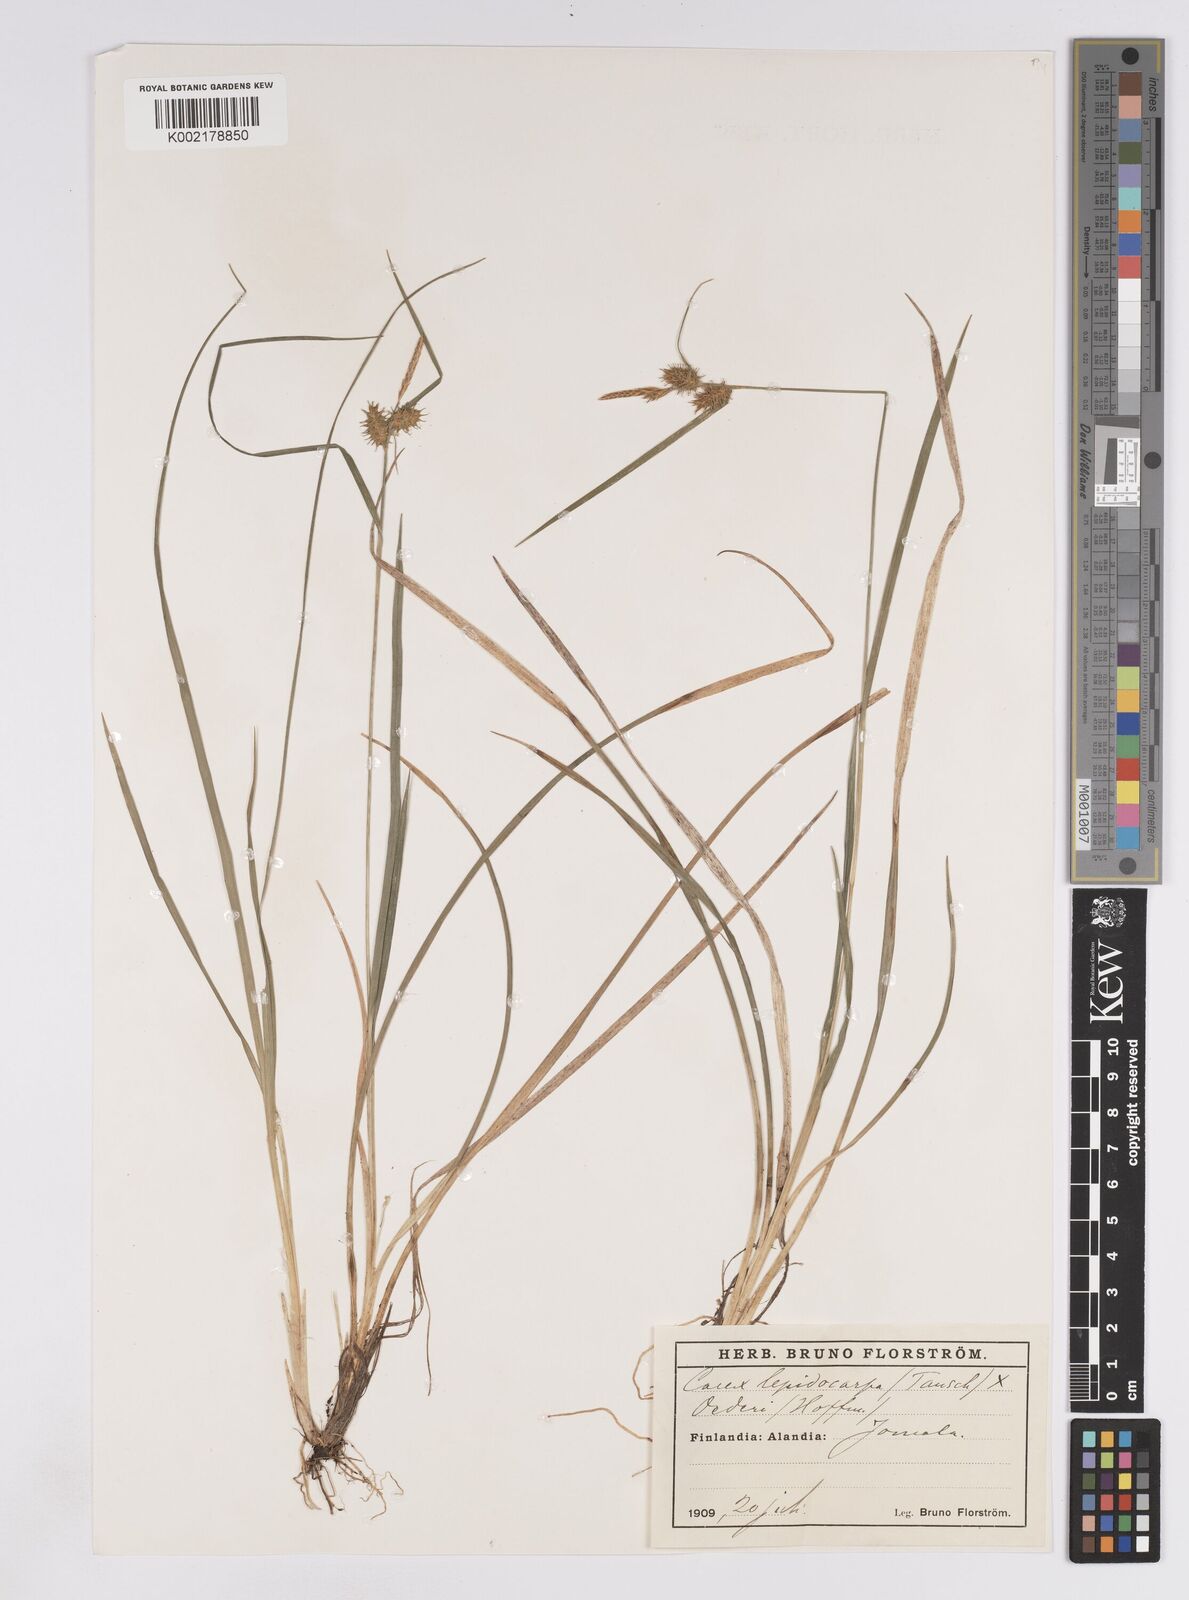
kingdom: Plantae
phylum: Tracheophyta
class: Liliopsida
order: Poales
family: Cyperaceae
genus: Carex
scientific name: Carex lepidocarpa
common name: Long-stalked yellow-sedge
